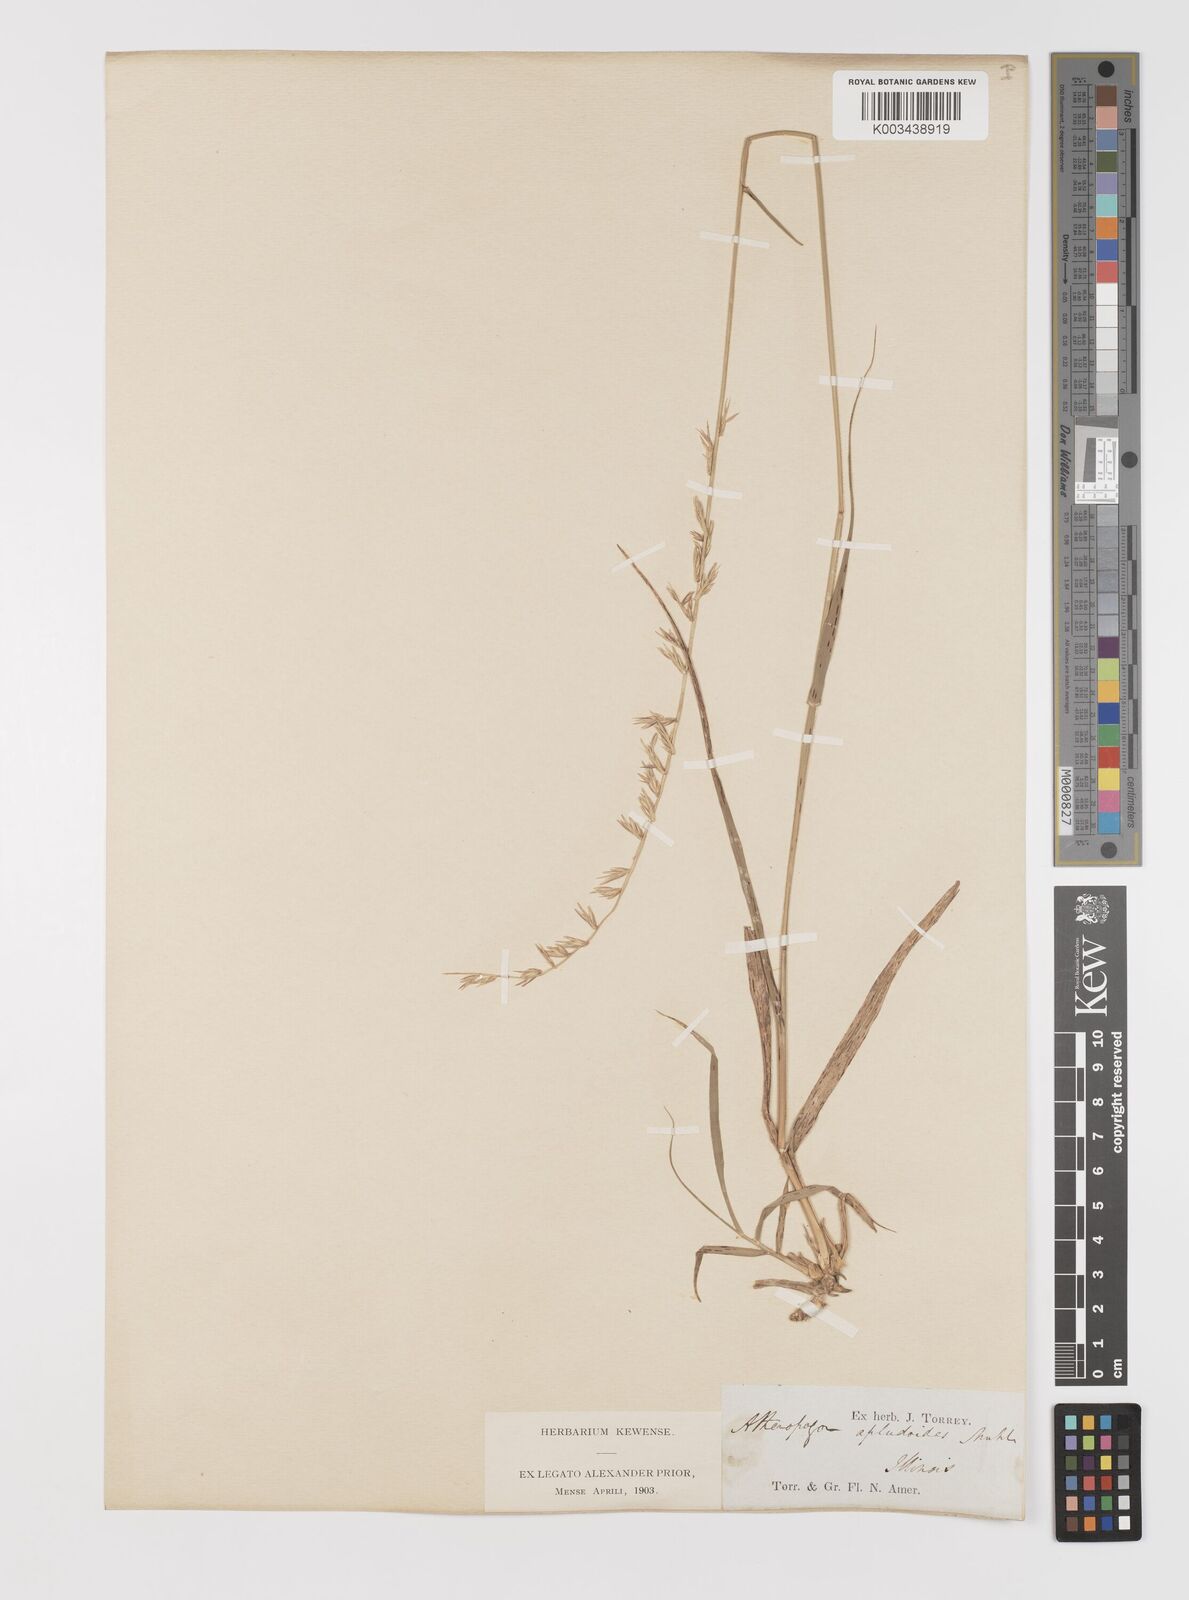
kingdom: Plantae
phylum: Tracheophyta
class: Liliopsida
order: Poales
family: Poaceae
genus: Bouteloua
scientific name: Bouteloua curtipendula
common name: Side-oats grama
